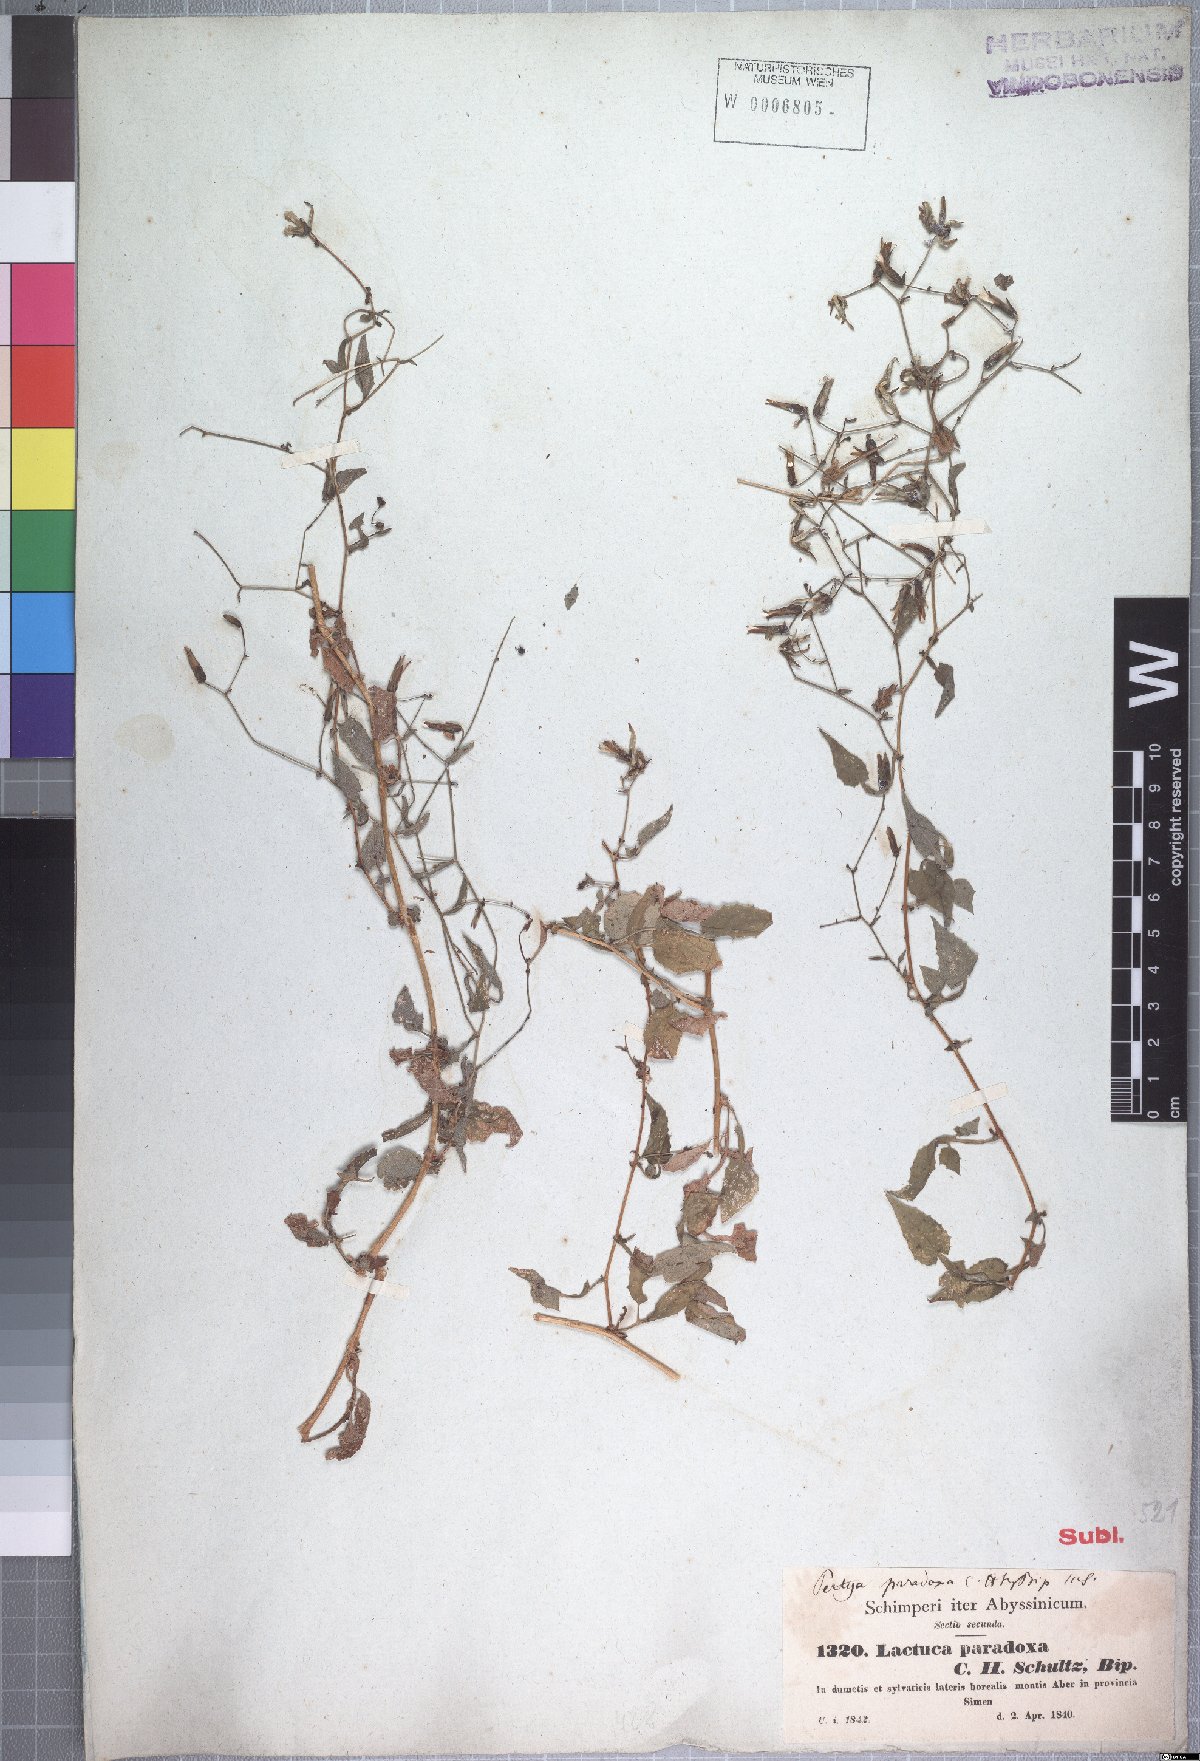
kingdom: Plantae
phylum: Tracheophyta
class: Magnoliopsida
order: Asterales
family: Asteraceae
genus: Lactuca
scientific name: Lactuca paradoxa
